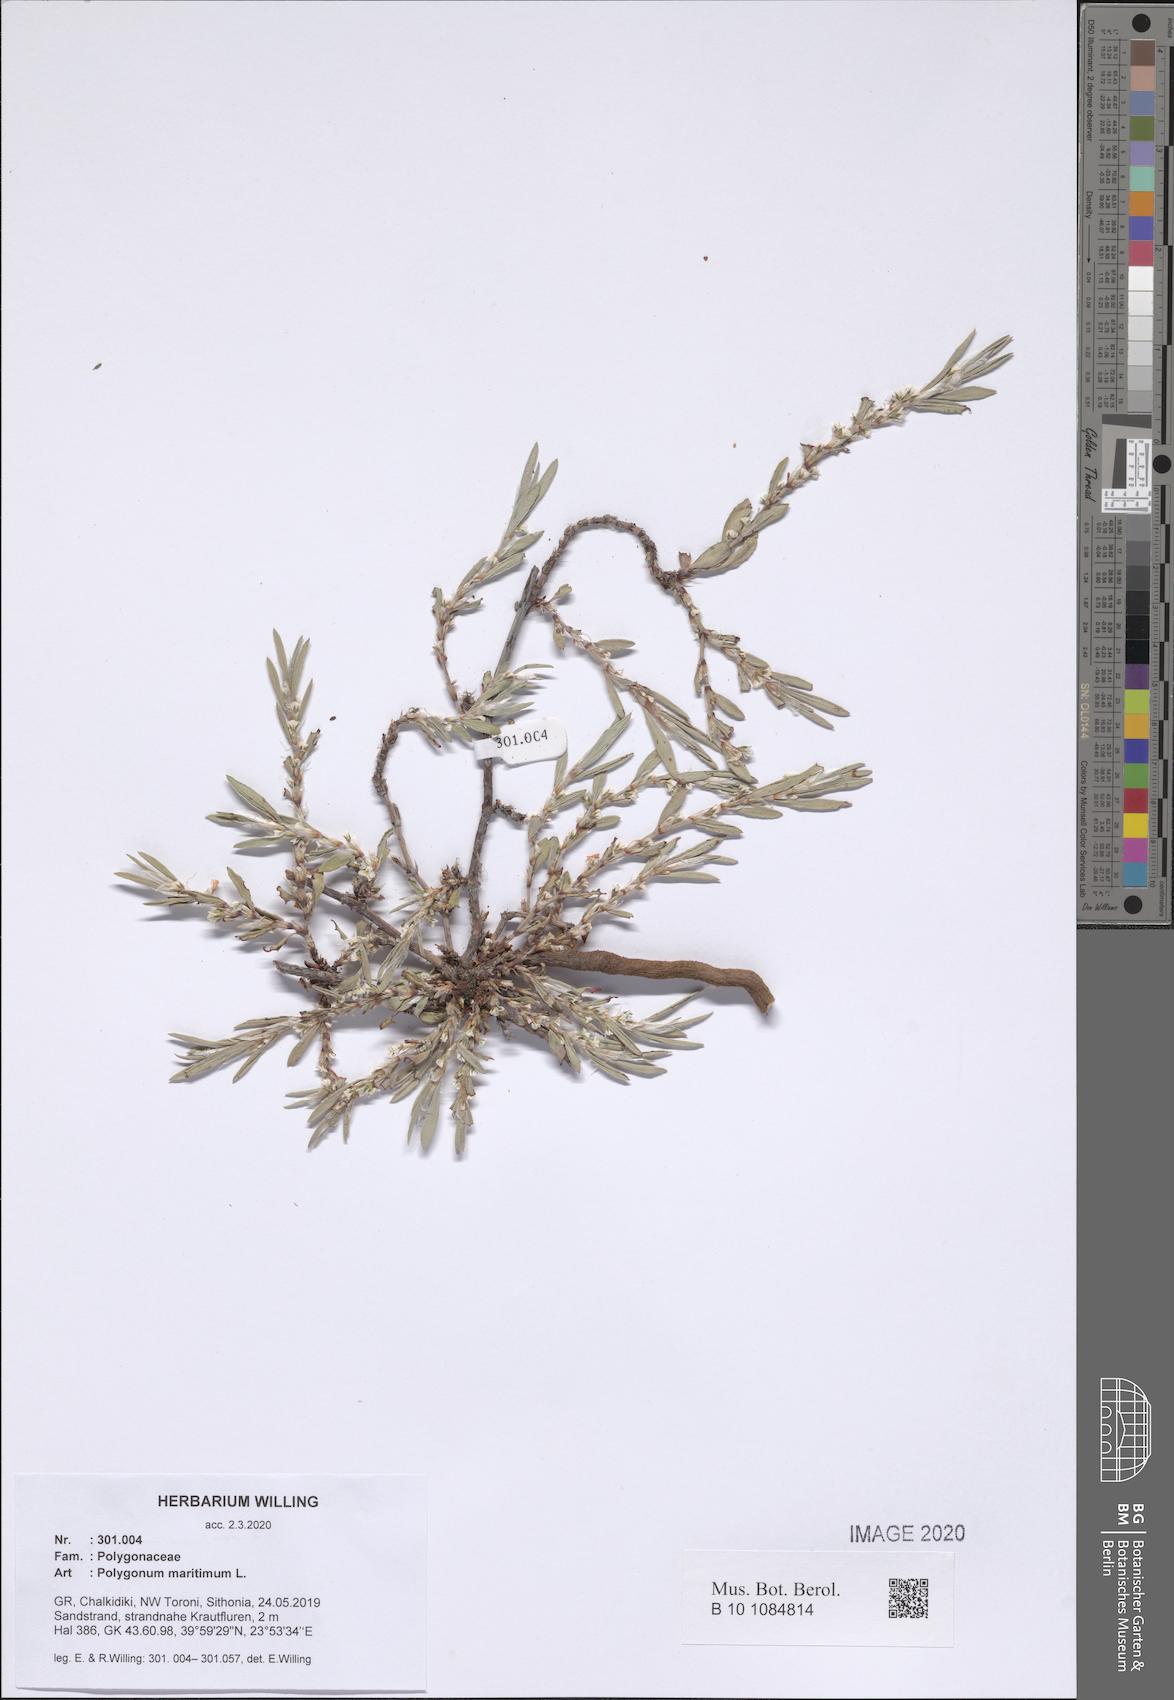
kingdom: Plantae
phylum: Tracheophyta
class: Magnoliopsida
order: Caryophyllales
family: Polygonaceae
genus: Polygonum
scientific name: Polygonum maritimum
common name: Sea knotgrass
